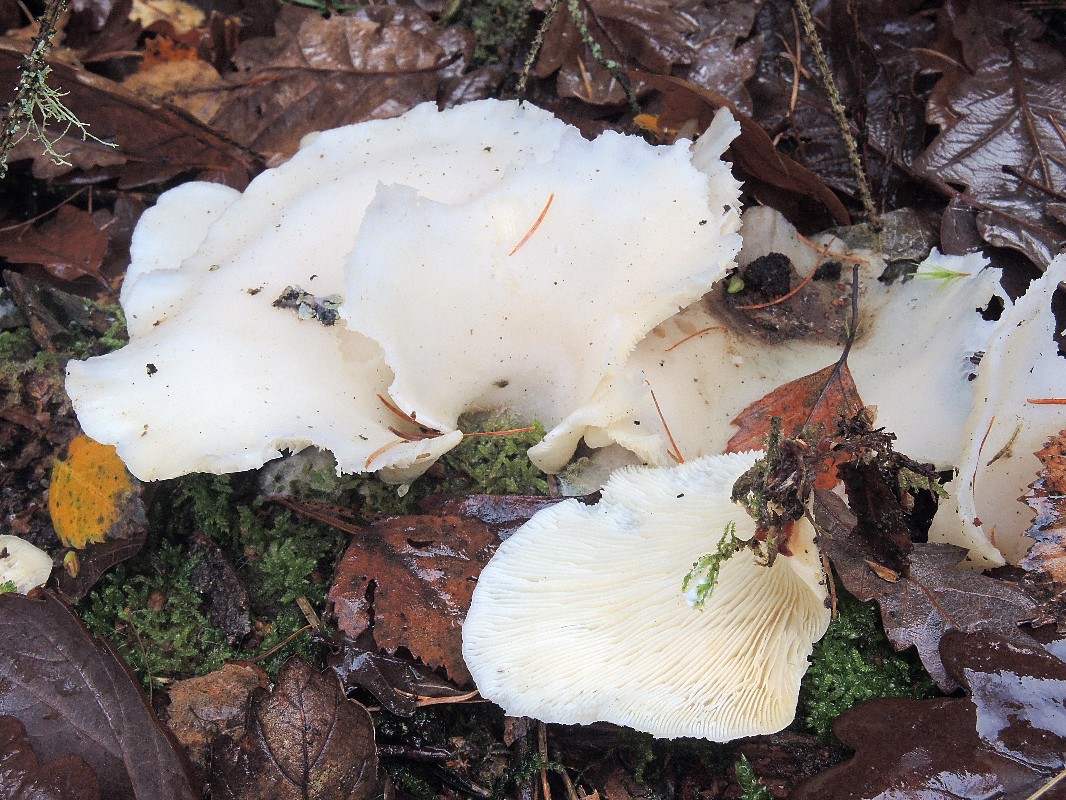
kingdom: Fungi
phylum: Basidiomycota
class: Agaricomycetes
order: Agaricales
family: Marasmiaceae
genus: Pleurocybella
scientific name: Pleurocybella porrigens
